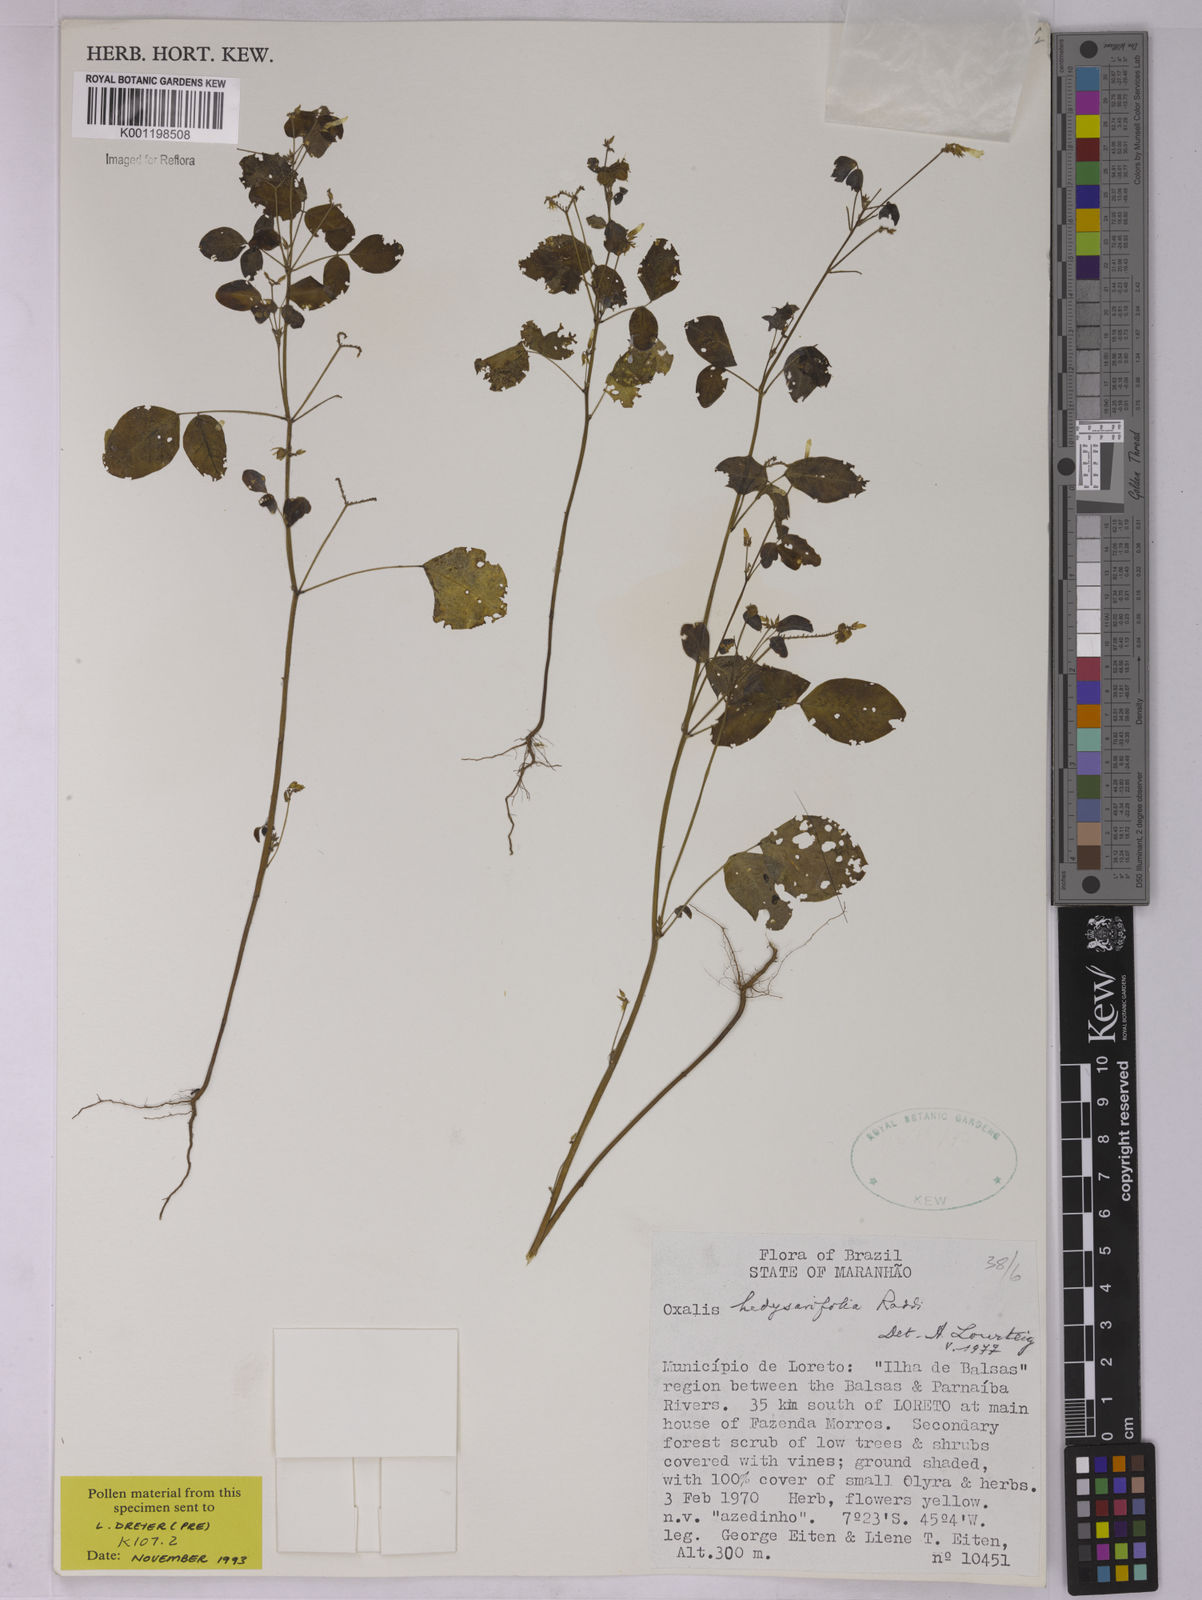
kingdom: Plantae
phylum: Tracheophyta
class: Magnoliopsida
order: Oxalidales
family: Oxalidaceae
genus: Oxalis
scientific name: Oxalis frutescens
